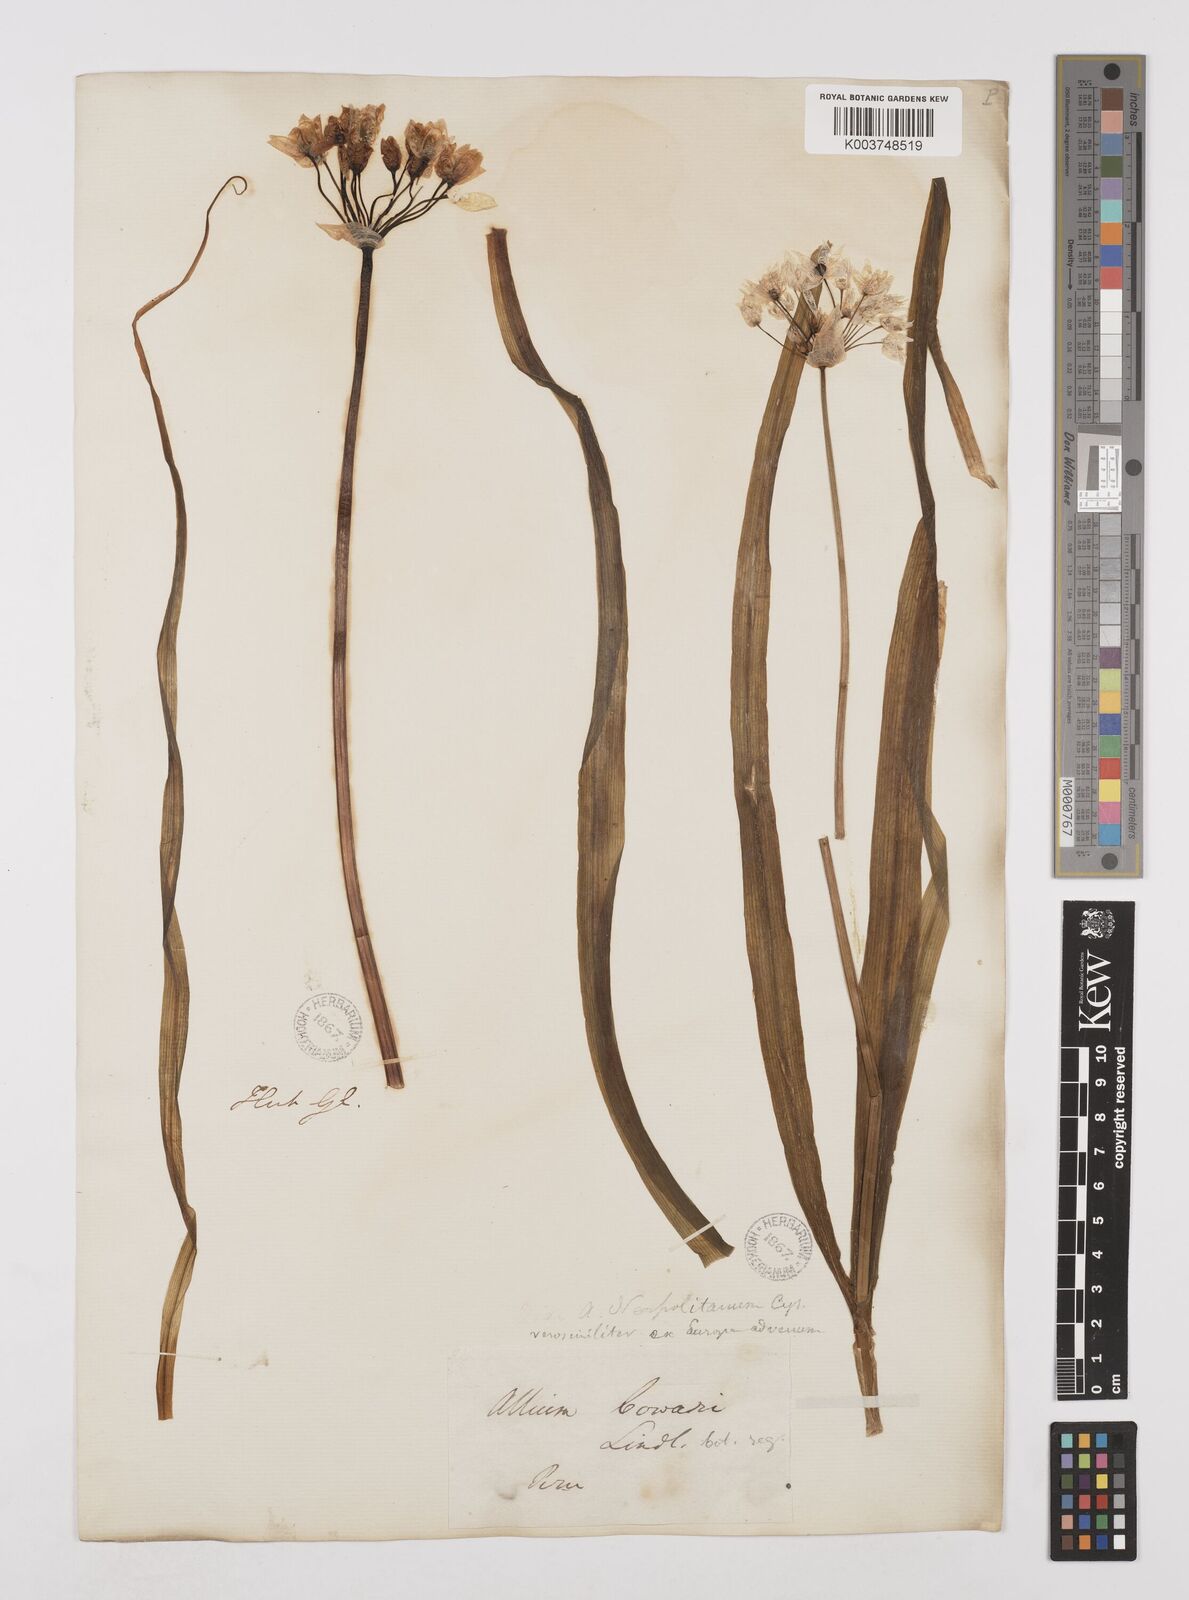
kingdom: Plantae
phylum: Tracheophyta
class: Liliopsida
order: Asparagales
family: Amaryllidaceae
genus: Allium
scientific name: Allium neapolitanum
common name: Neapolitan garlic
